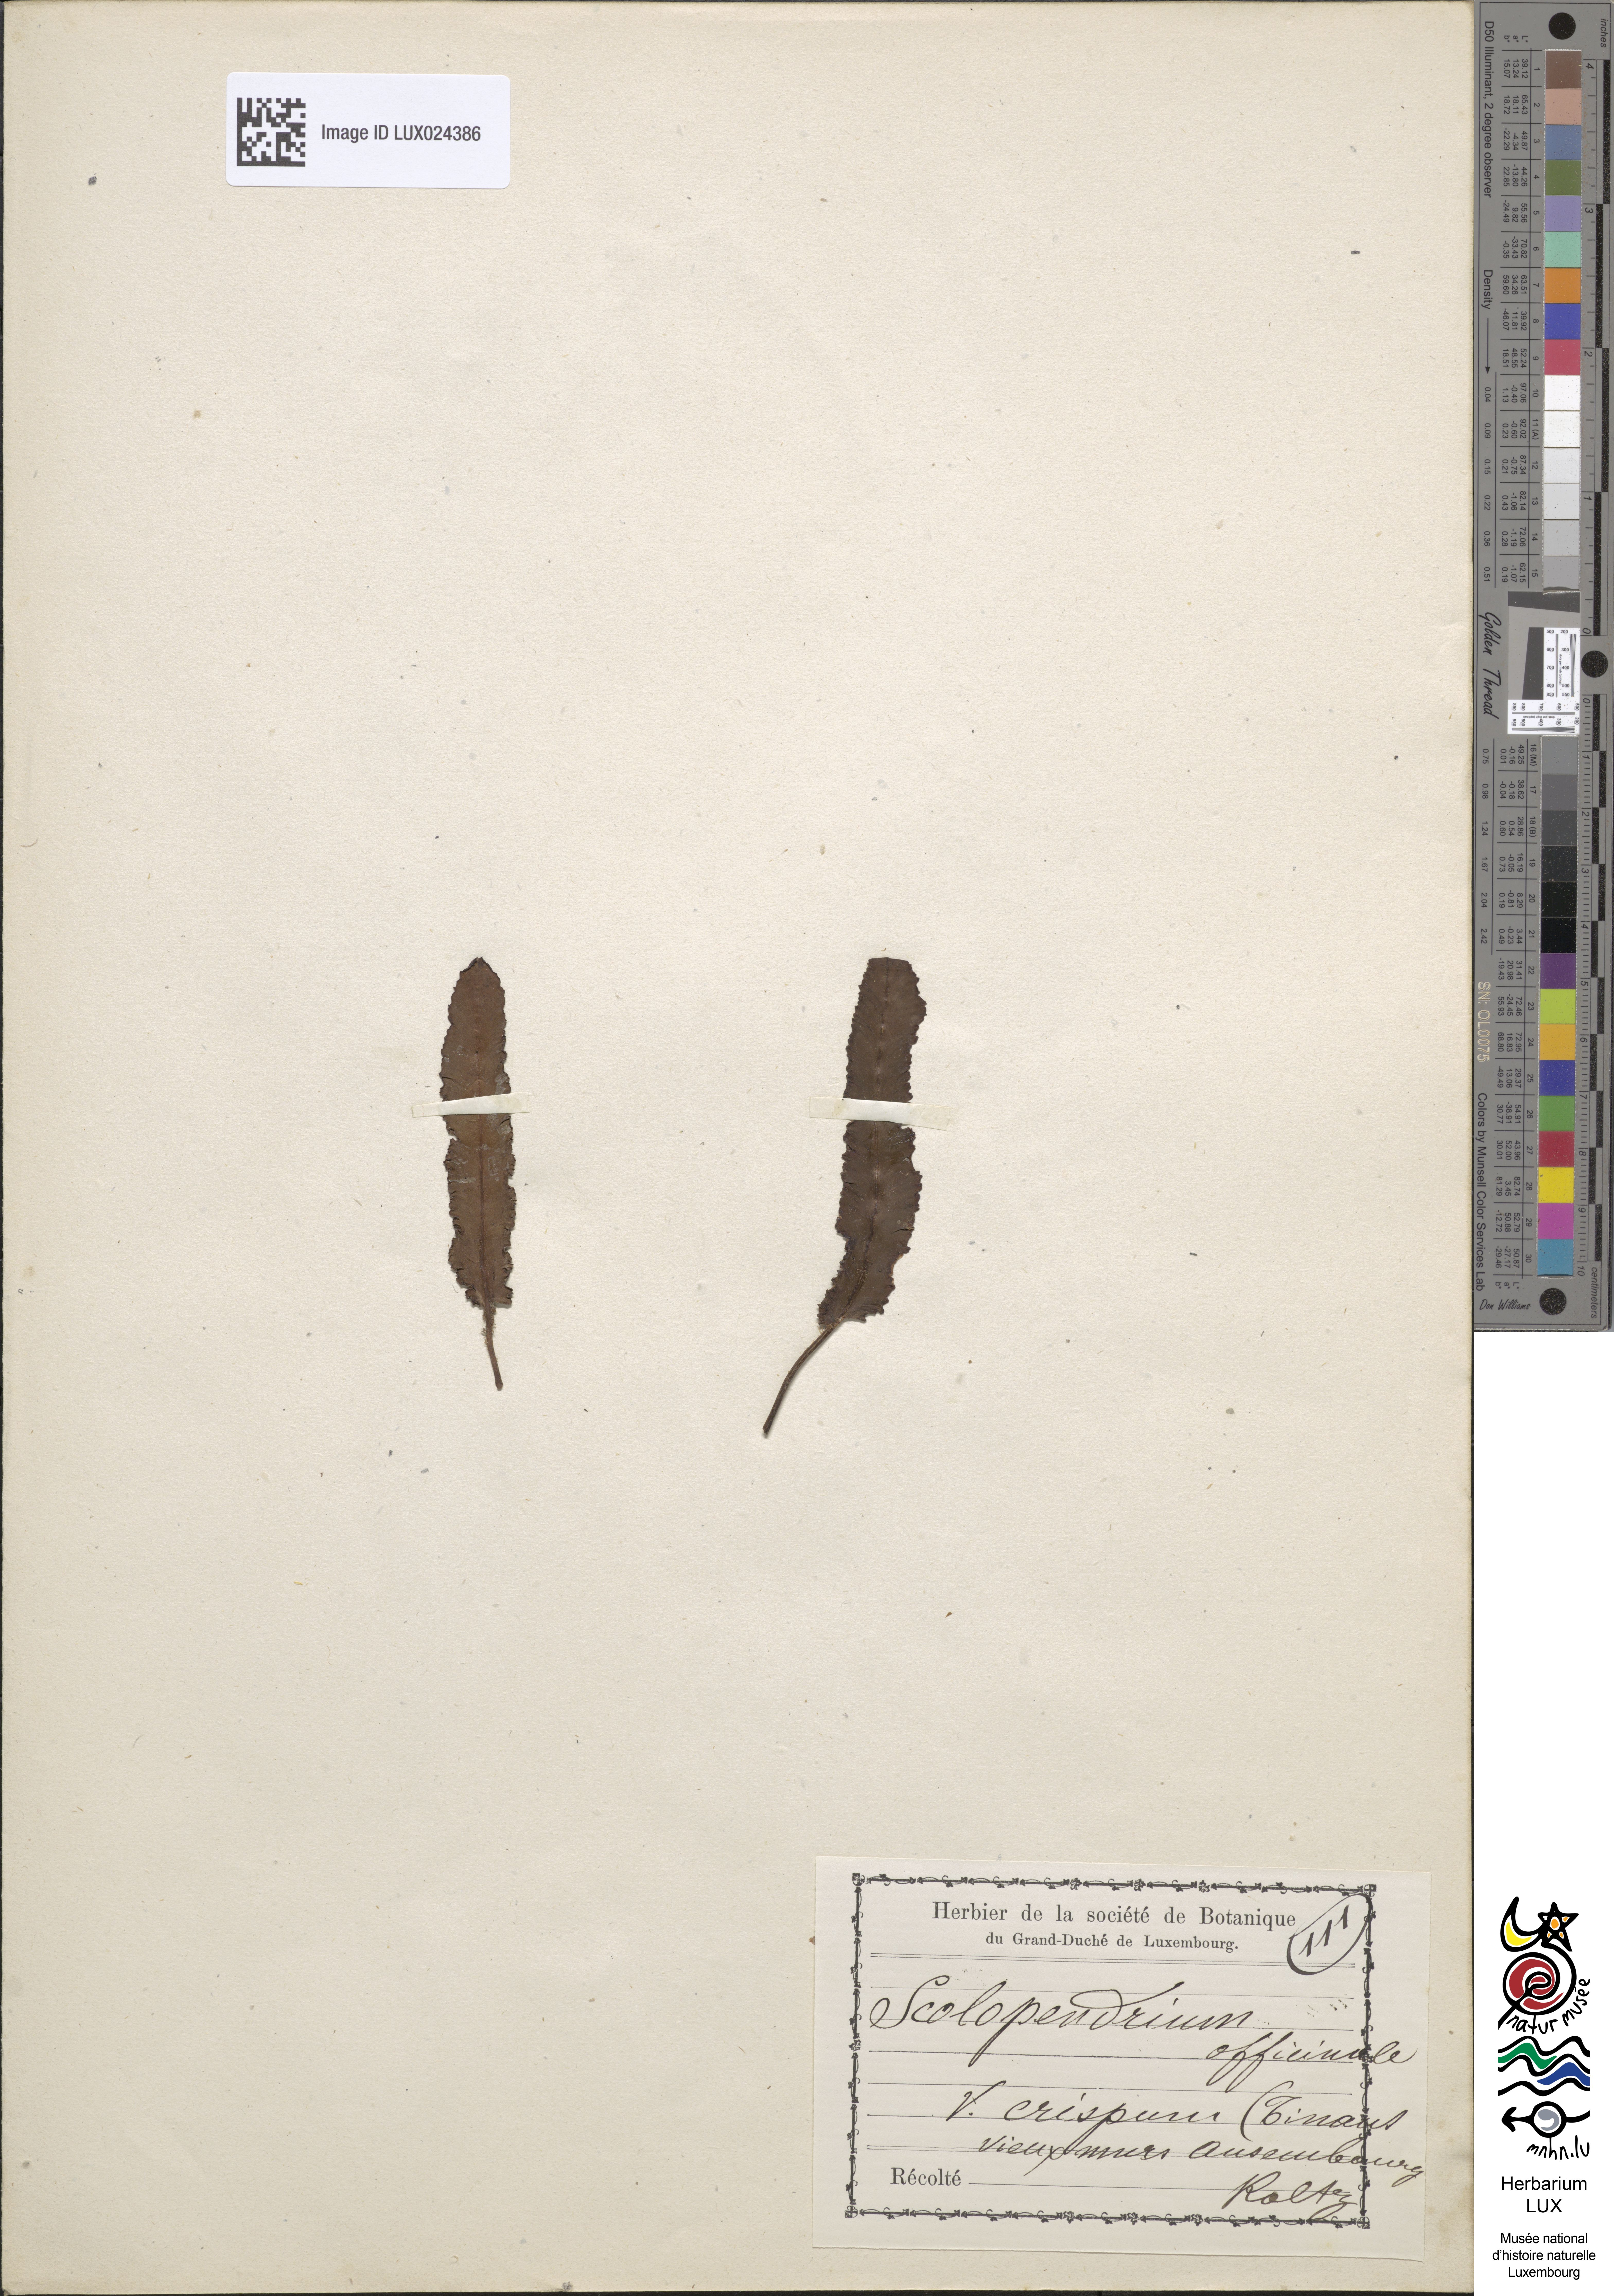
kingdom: Plantae
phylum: Tracheophyta
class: Polypodiopsida
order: Polypodiales
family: Aspleniaceae
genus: Asplenium
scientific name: Asplenium scolopendrium
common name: Hart's-tongue fern
